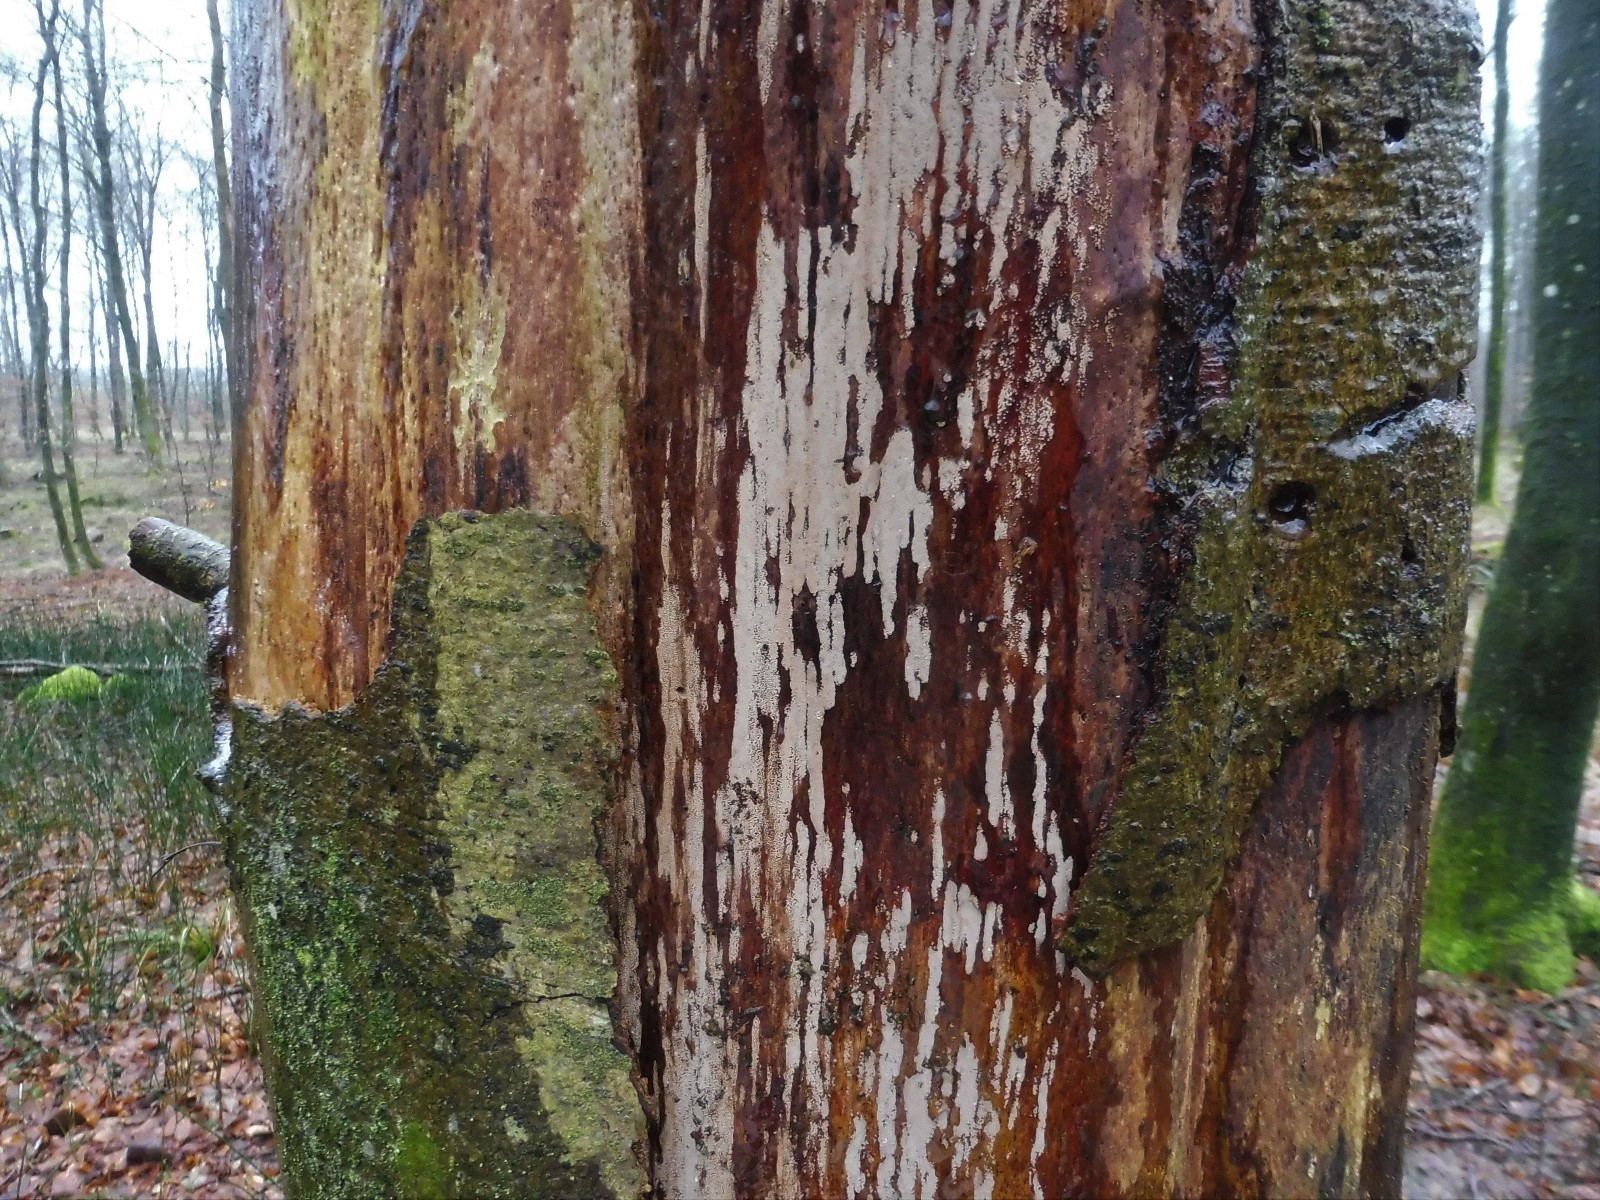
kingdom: Fungi
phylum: Basidiomycota
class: Agaricomycetes
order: Agaricales
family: Pleurotaceae
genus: Resupinatus
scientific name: Resupinatus poriaeformis
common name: tæpperør
